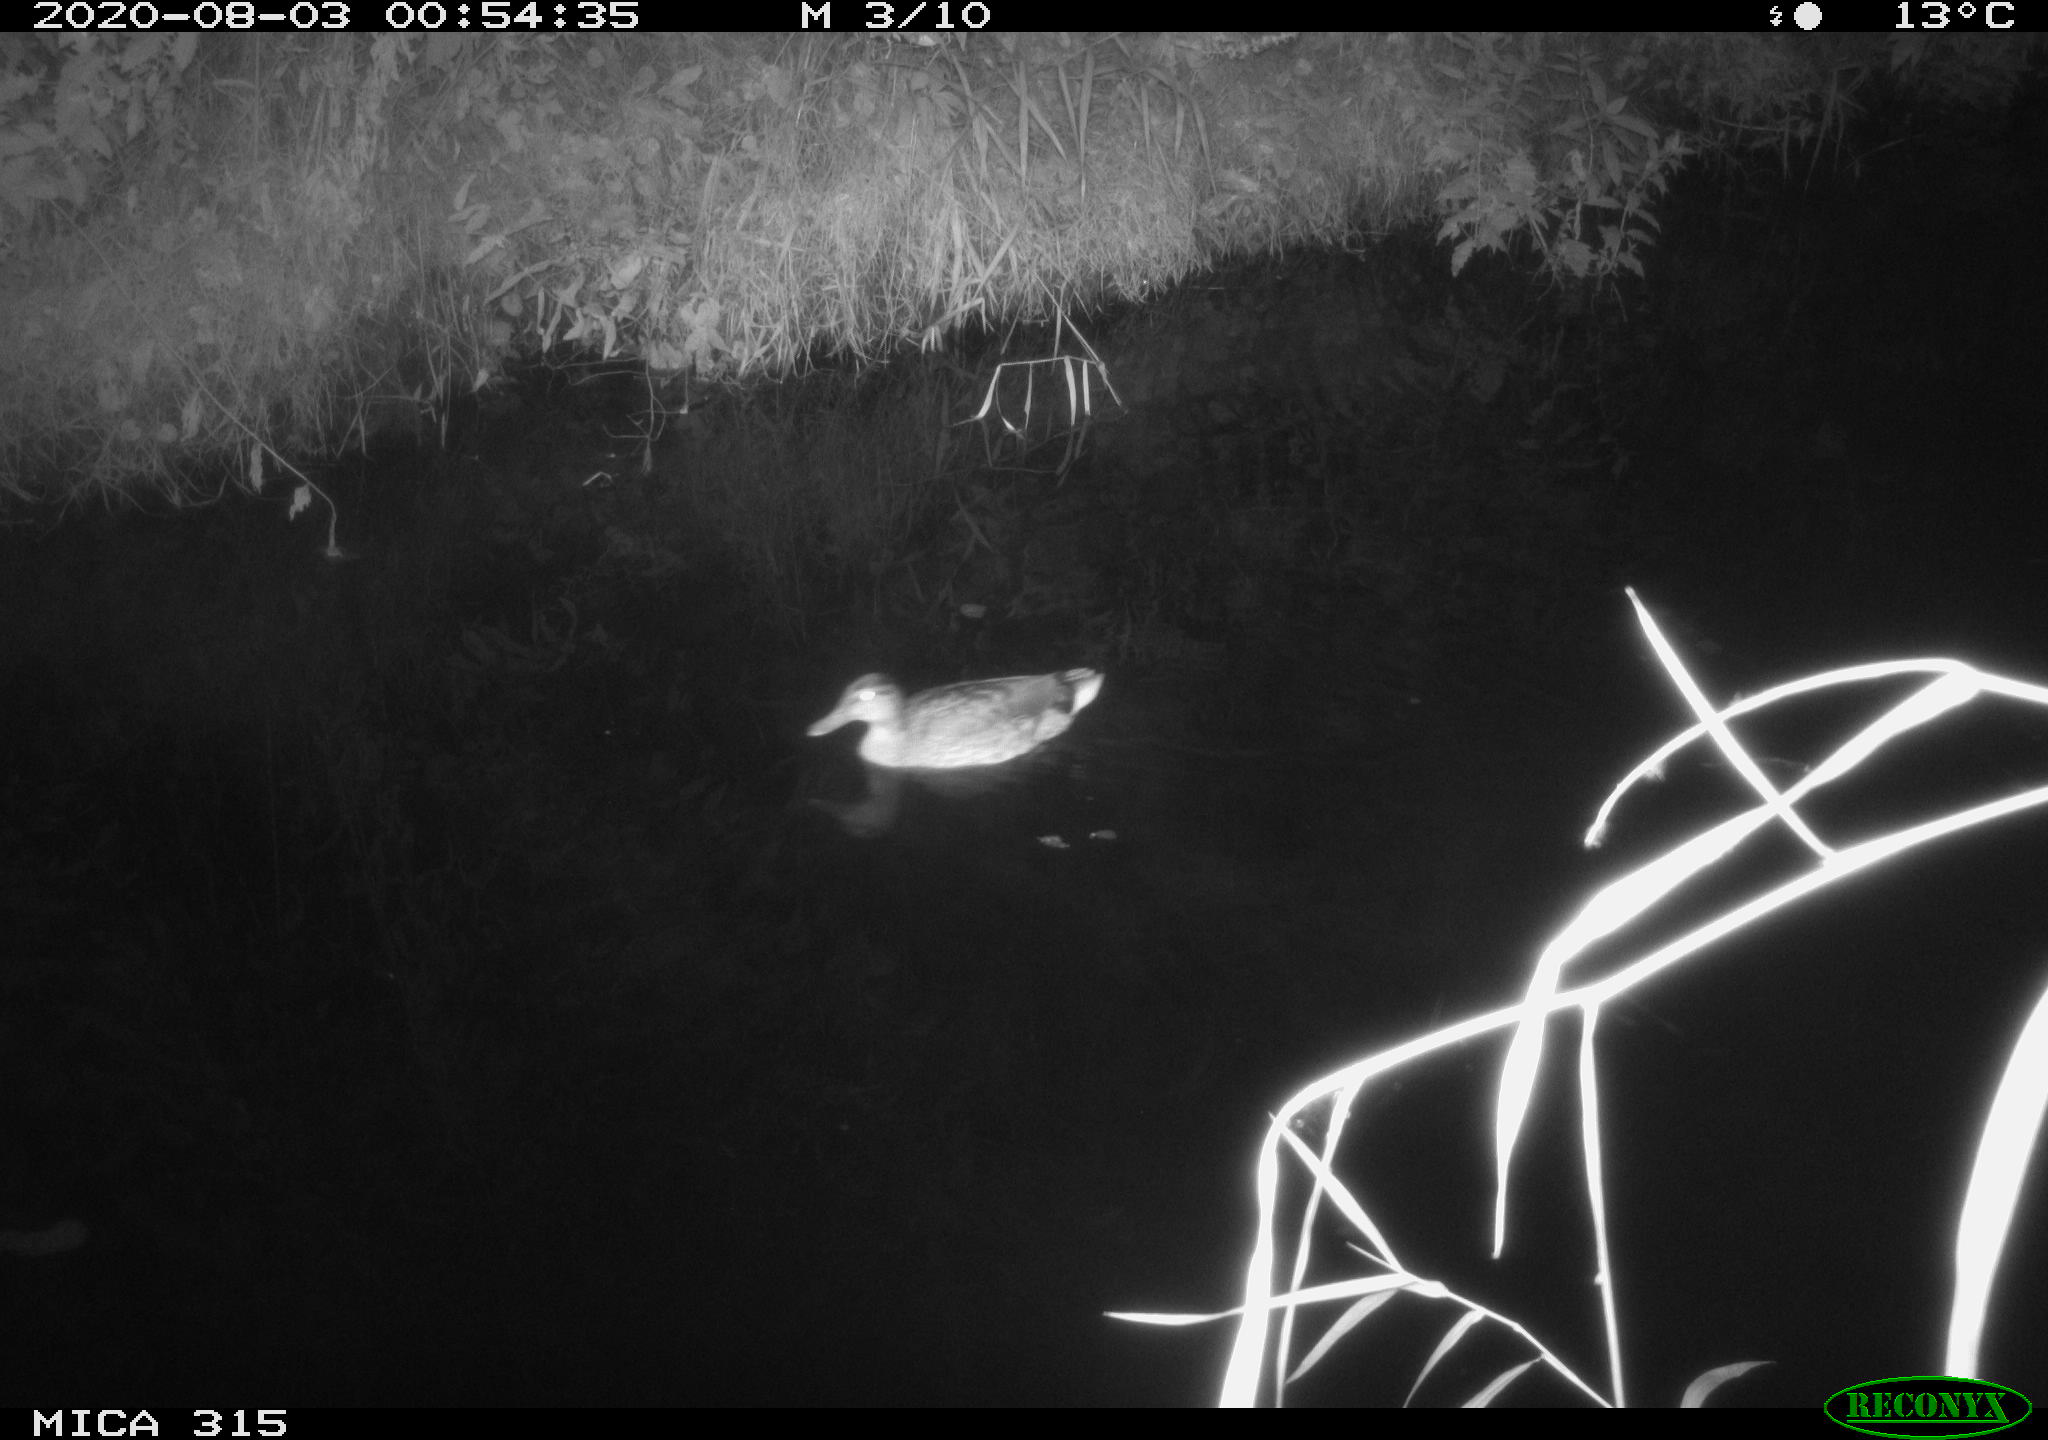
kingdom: Animalia
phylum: Chordata
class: Aves
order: Anseriformes
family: Anatidae
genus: Anas
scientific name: Anas platyrhynchos
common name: Mallard
